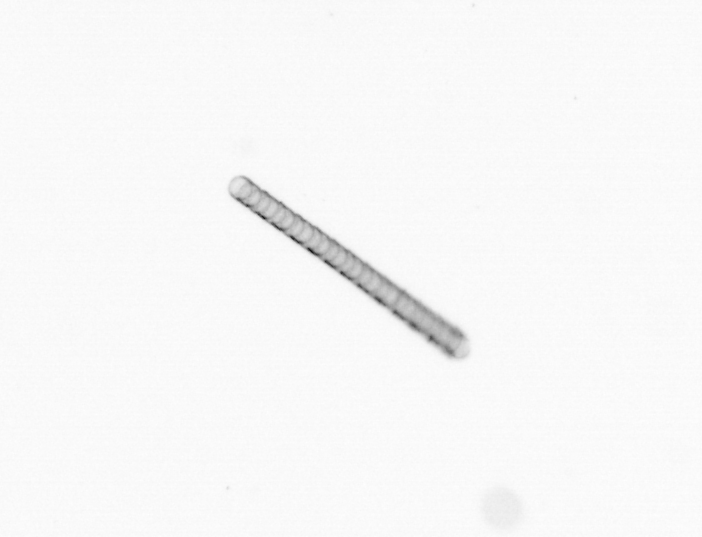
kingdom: Chromista
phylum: Ochrophyta
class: Bacillariophyceae
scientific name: Bacillariophyceae
